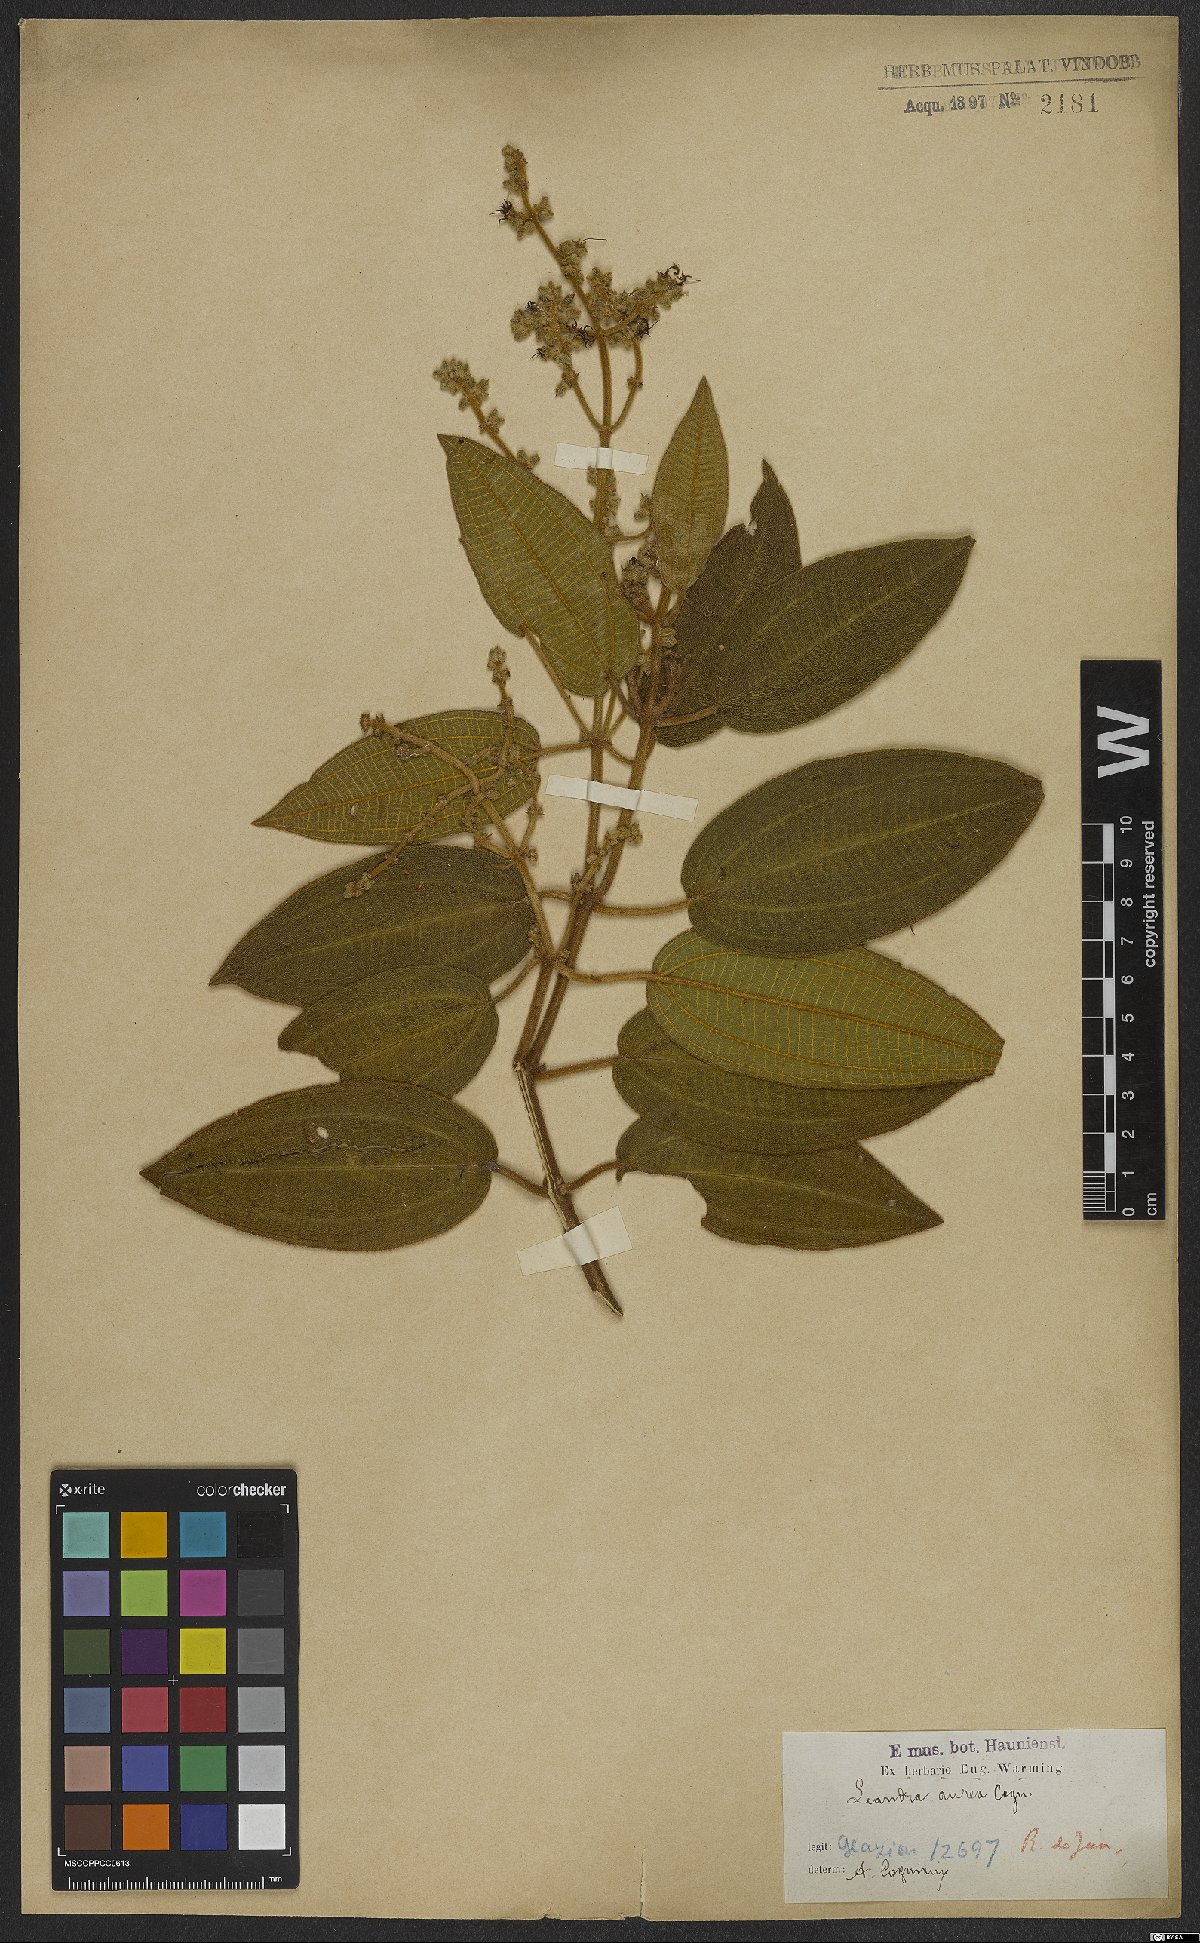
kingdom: Plantae
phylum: Tracheophyta
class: Magnoliopsida
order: Myrtales
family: Melastomataceae
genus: Miconia
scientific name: Miconia auricoma
